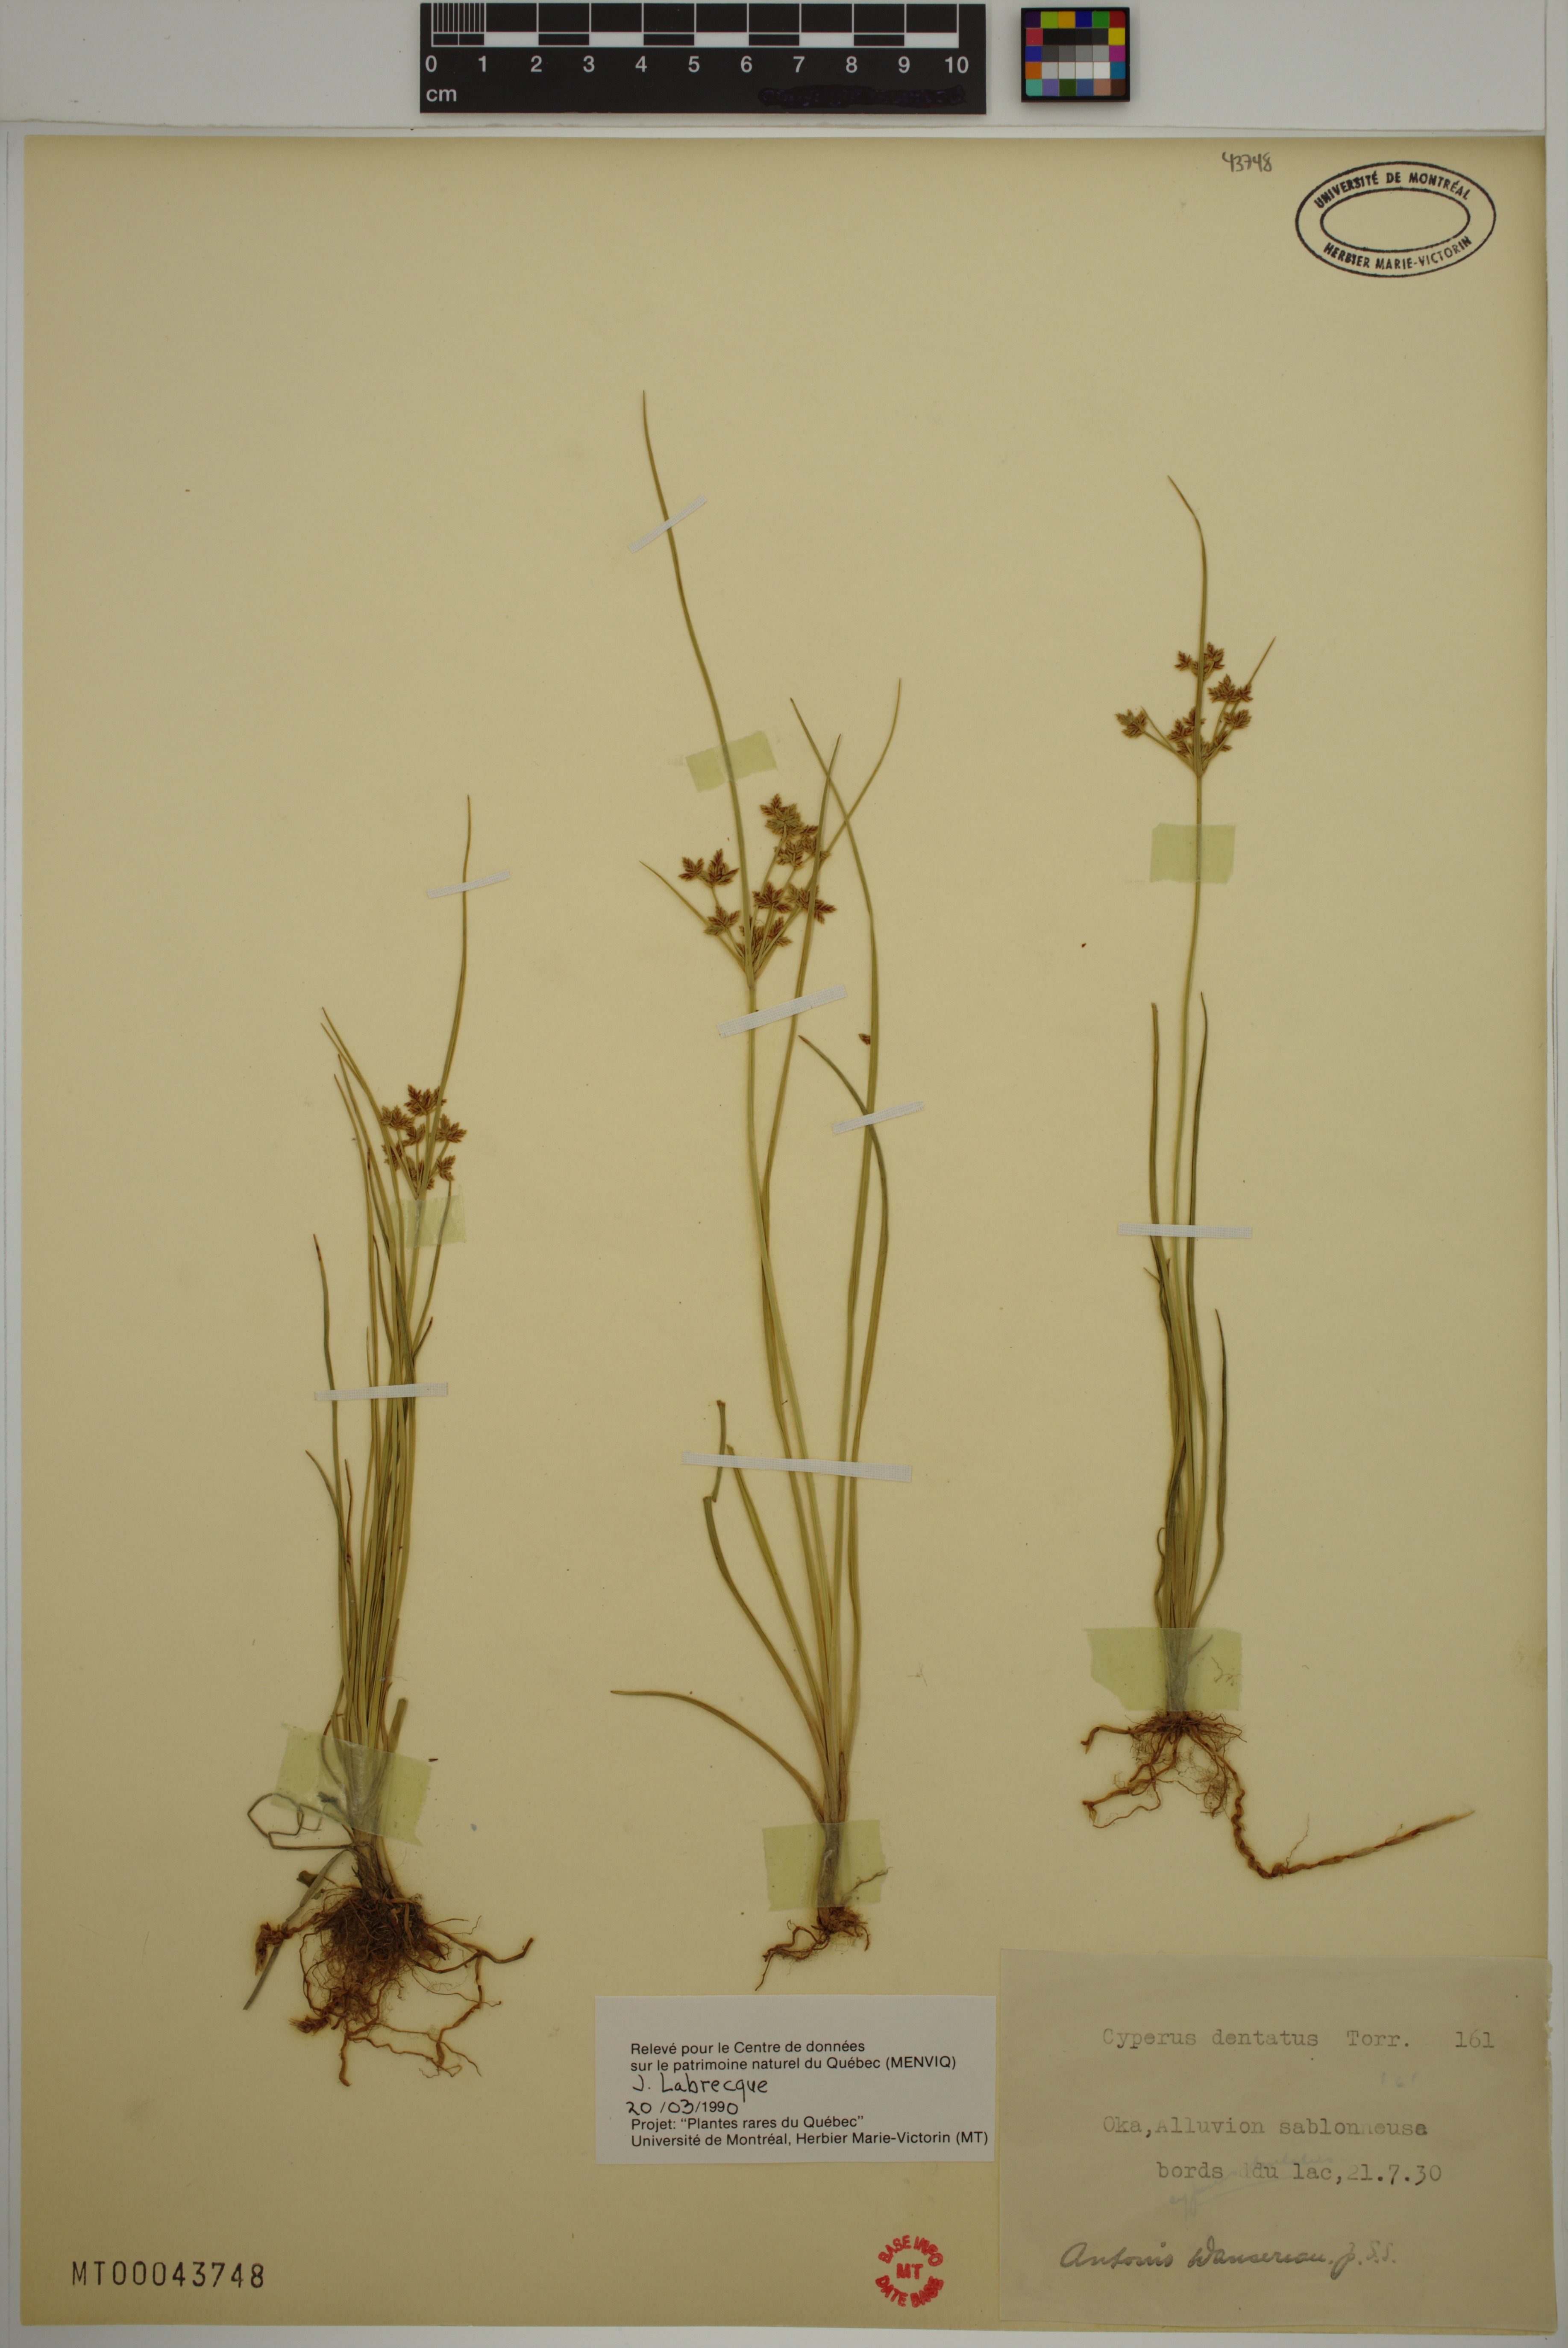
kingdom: Plantae
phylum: Tracheophyta
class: Liliopsida
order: Poales
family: Cyperaceae
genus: Cyperus
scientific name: Cyperus dentatus
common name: Dentate umbrella sedge
